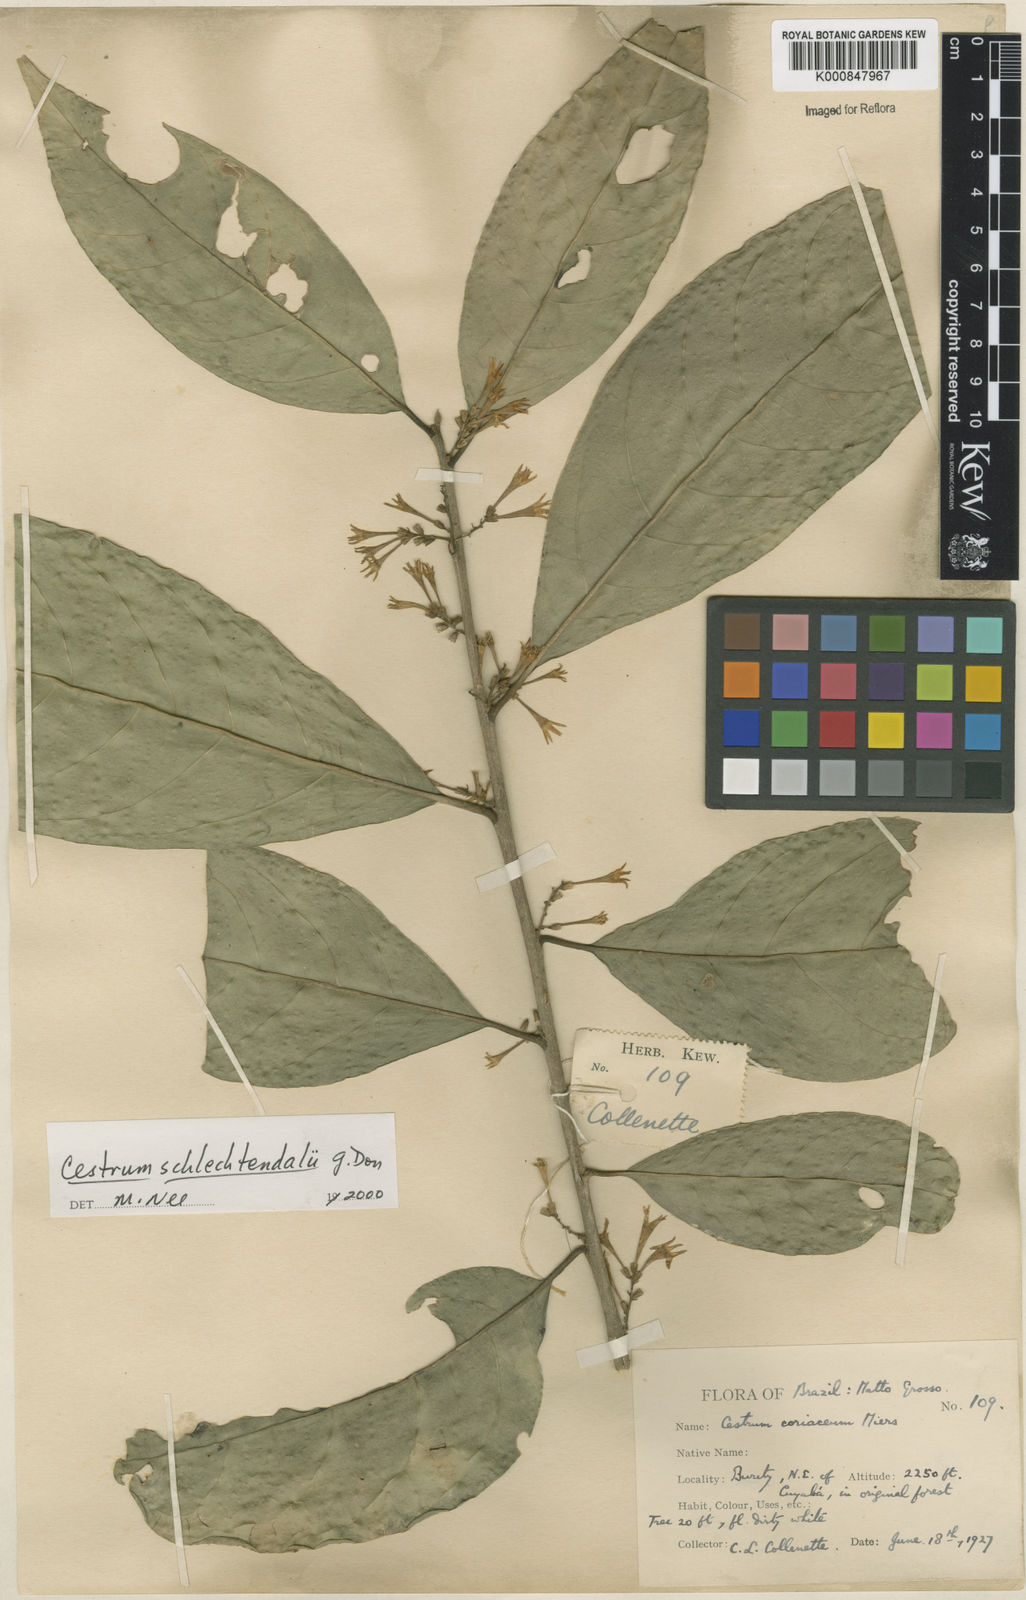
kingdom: Plantae
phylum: Tracheophyta
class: Magnoliopsida
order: Solanales
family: Solanaceae
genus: Cestrum
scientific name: Cestrum schlechtendalii
